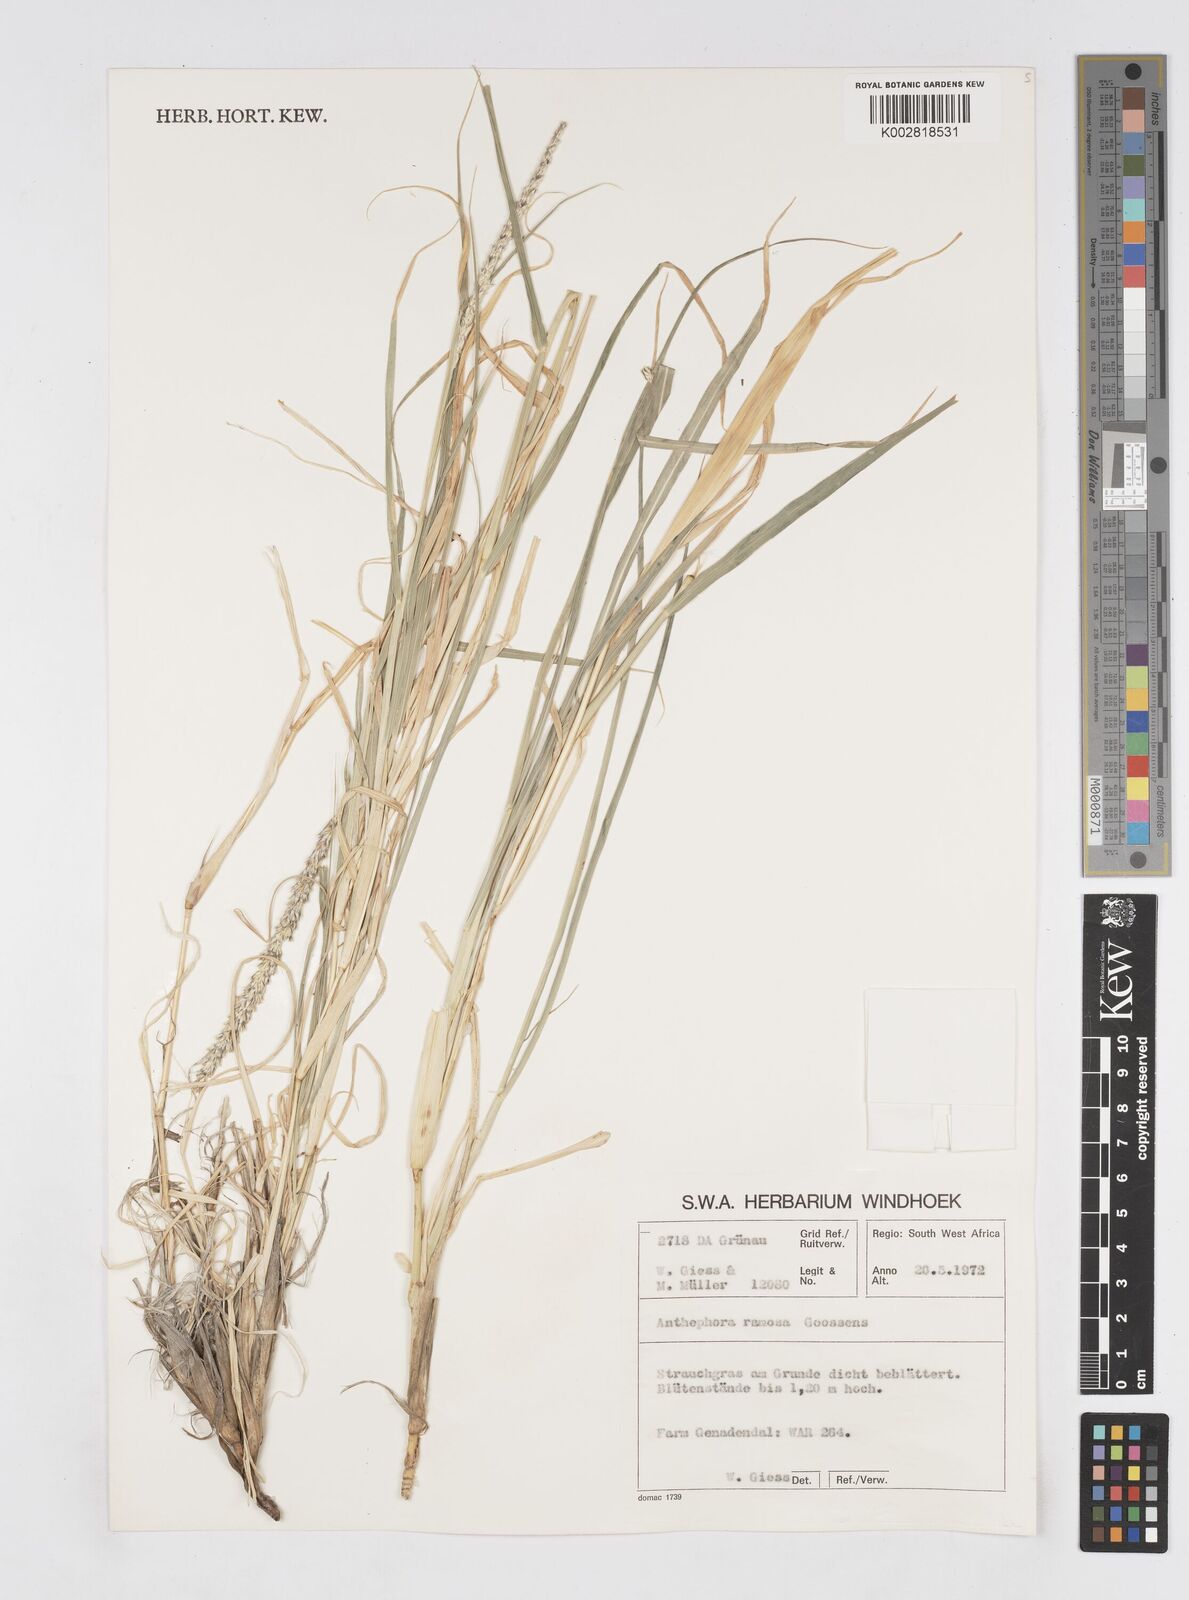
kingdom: Plantae
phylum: Tracheophyta
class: Liliopsida
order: Poales
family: Poaceae
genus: Anthephora
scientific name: Anthephora pubescens
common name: Wool grass
